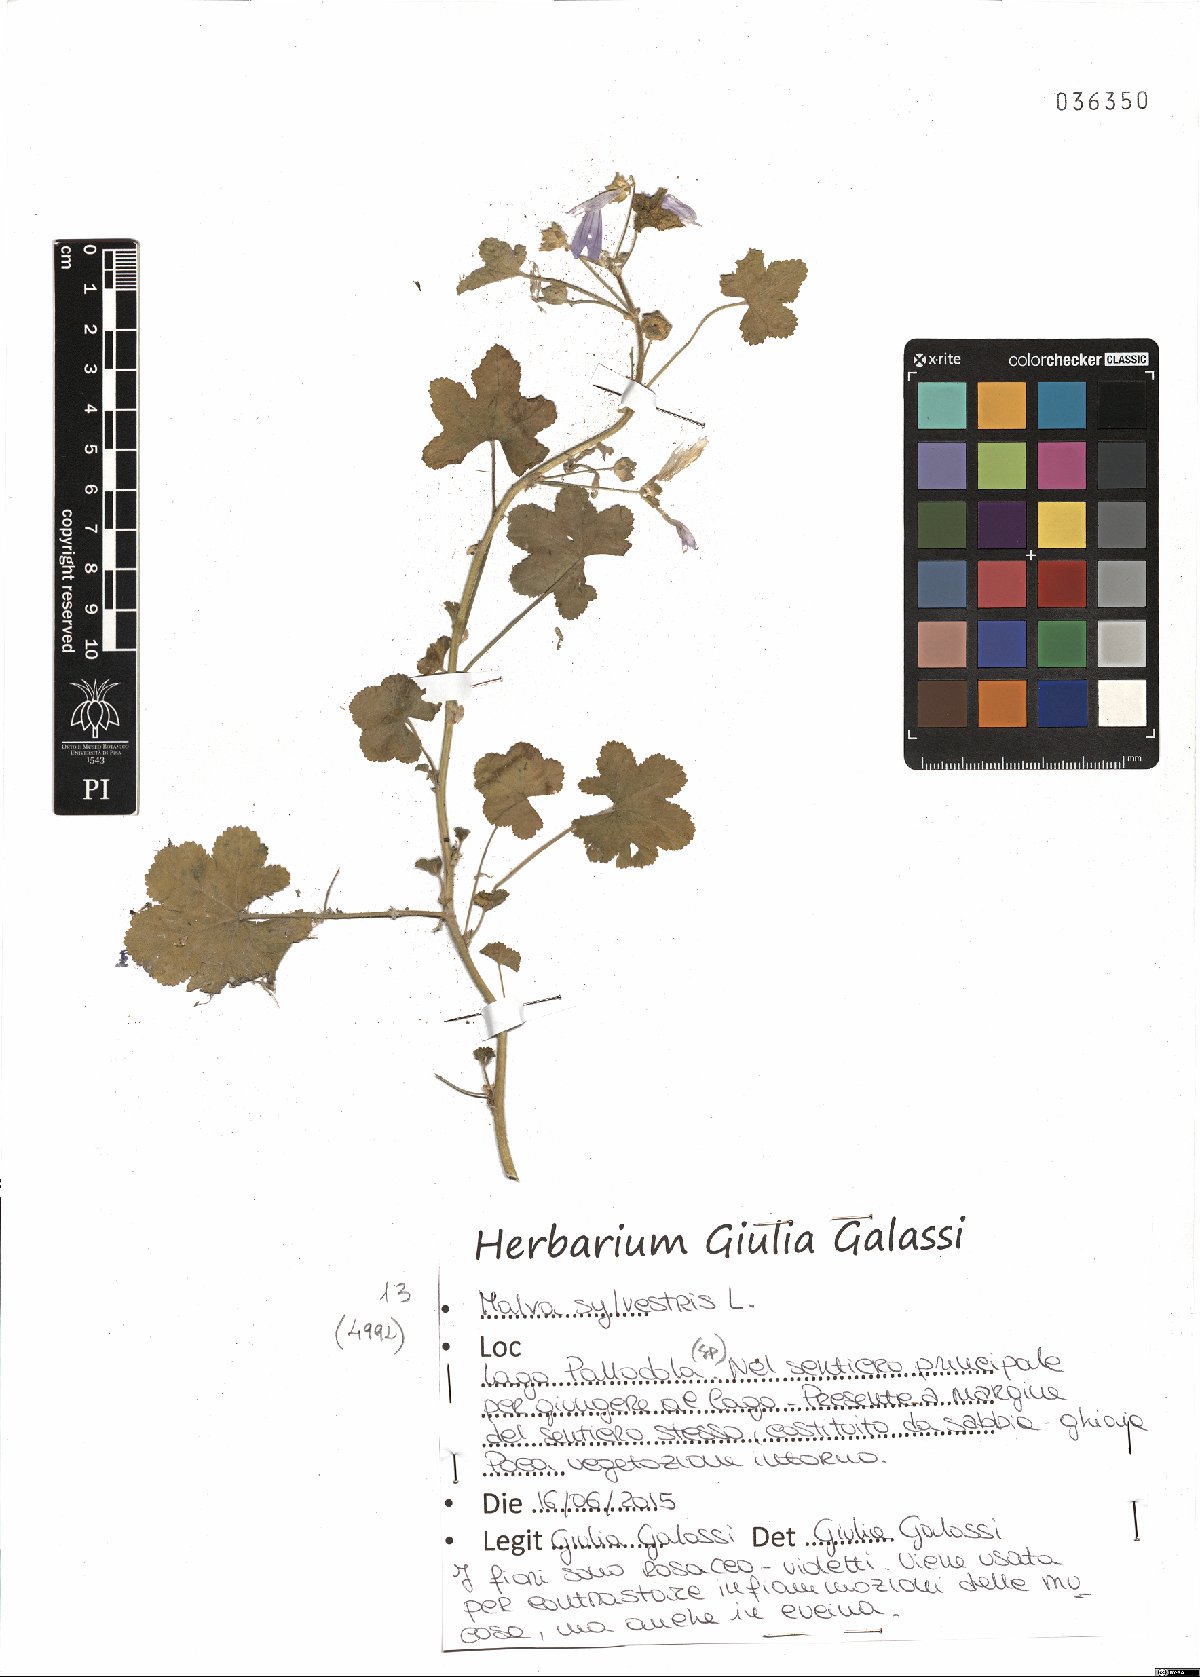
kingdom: Plantae
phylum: Tracheophyta
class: Magnoliopsida
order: Malvales
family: Malvaceae
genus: Malva
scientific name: Malva sylvestris
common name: Common mallow
